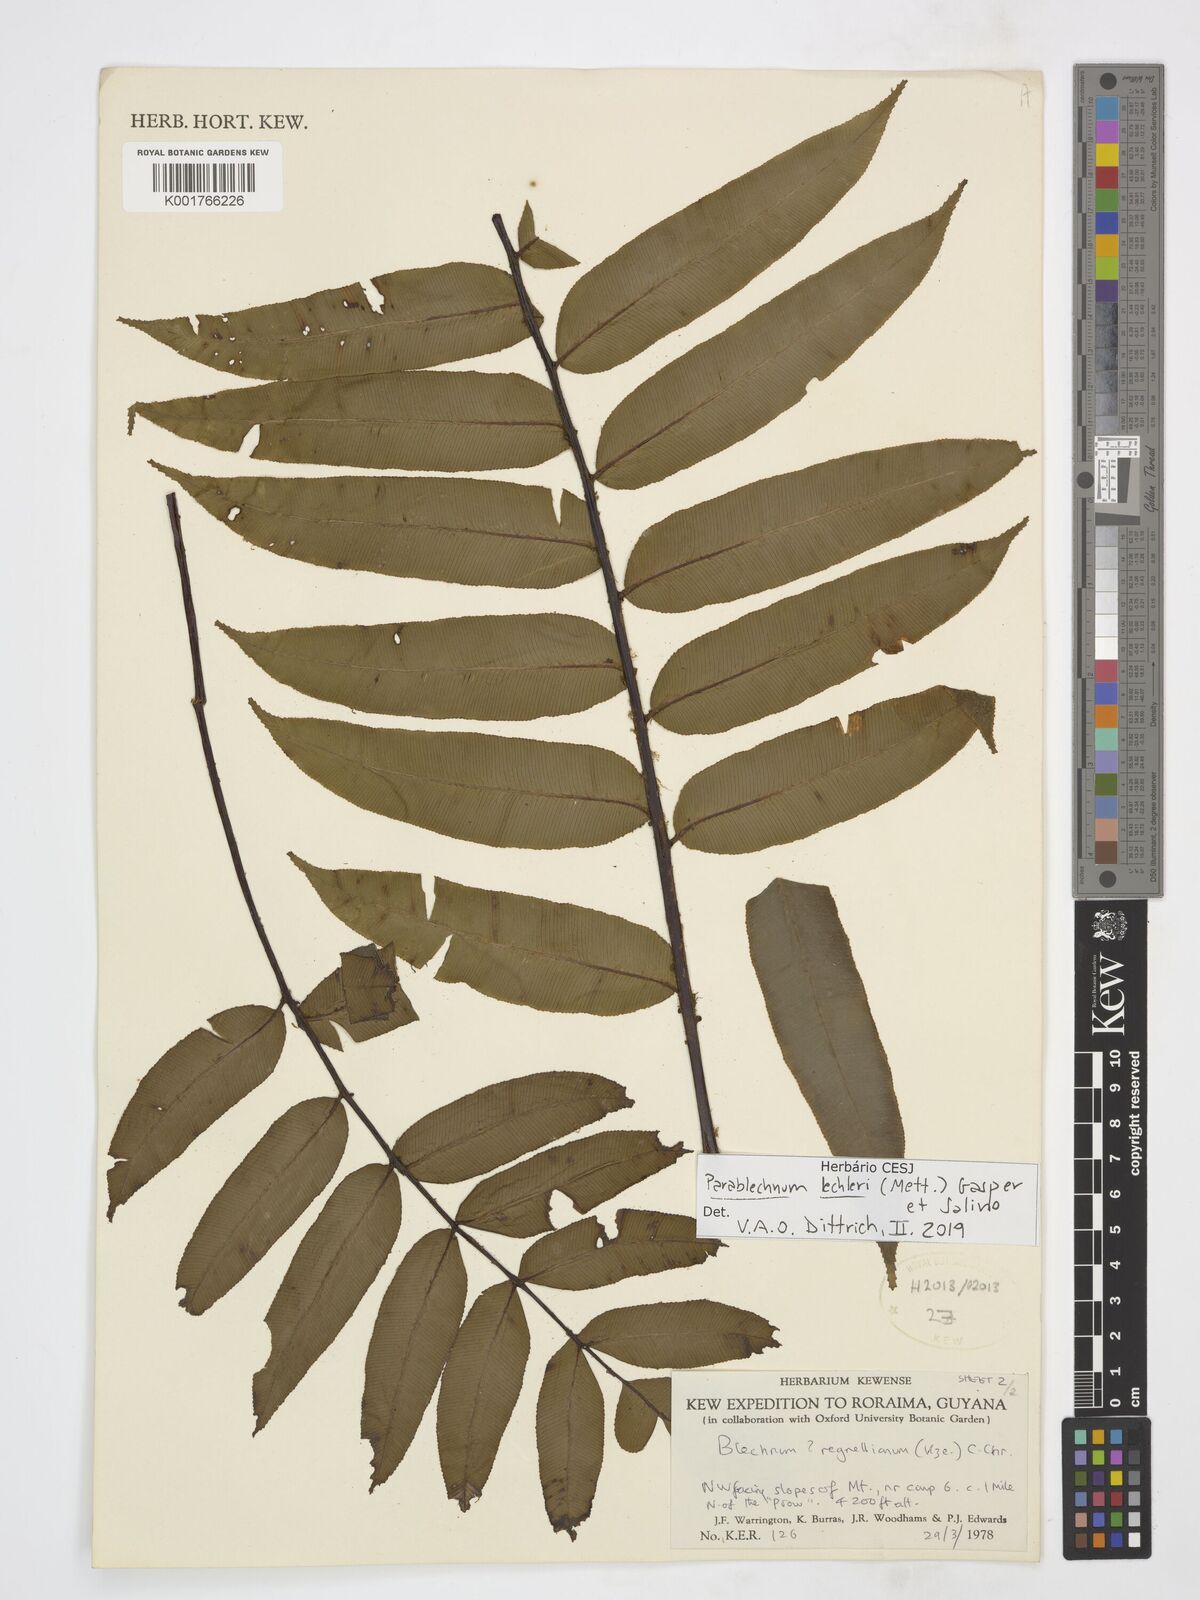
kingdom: Plantae
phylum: Tracheophyta
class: Polypodiopsida
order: Polypodiales
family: Blechnaceae
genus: Parablechnum
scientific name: Parablechnum cordatum
